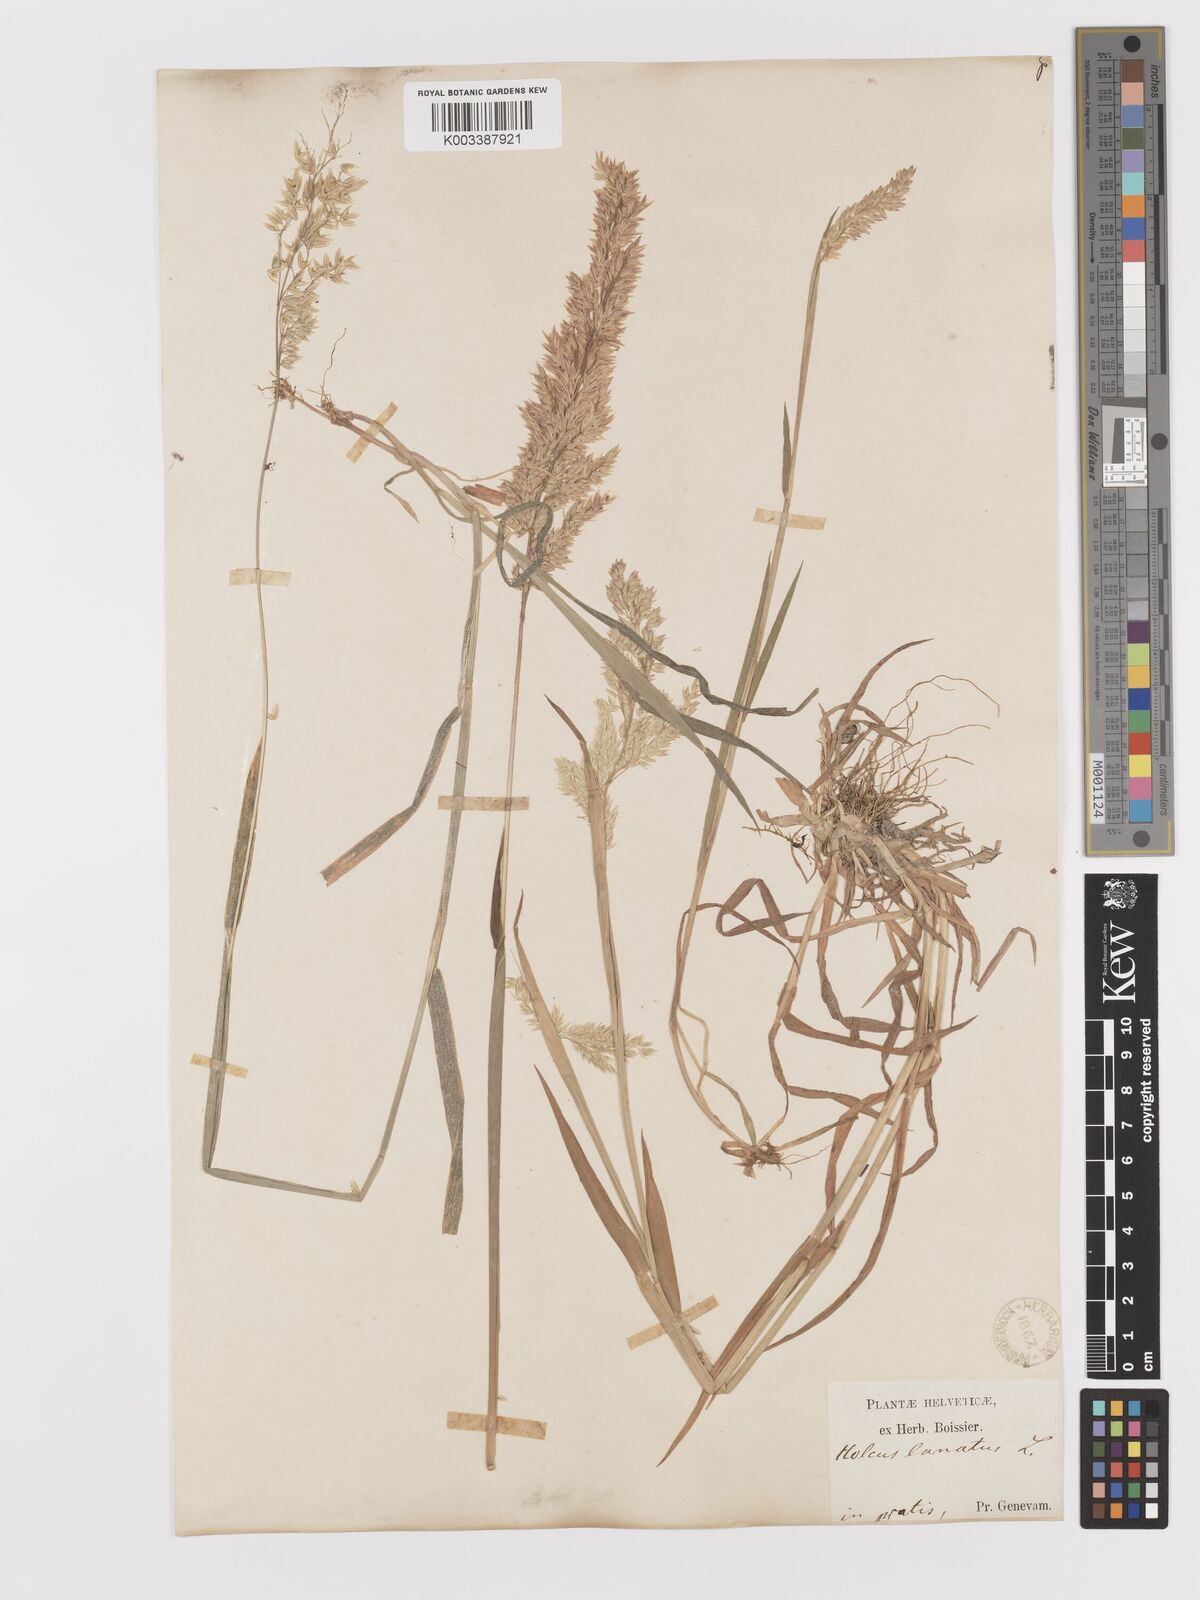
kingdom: Plantae
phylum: Tracheophyta
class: Liliopsida
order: Poales
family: Poaceae
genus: Holcus
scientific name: Holcus lanatus
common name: Yorkshire-fog
